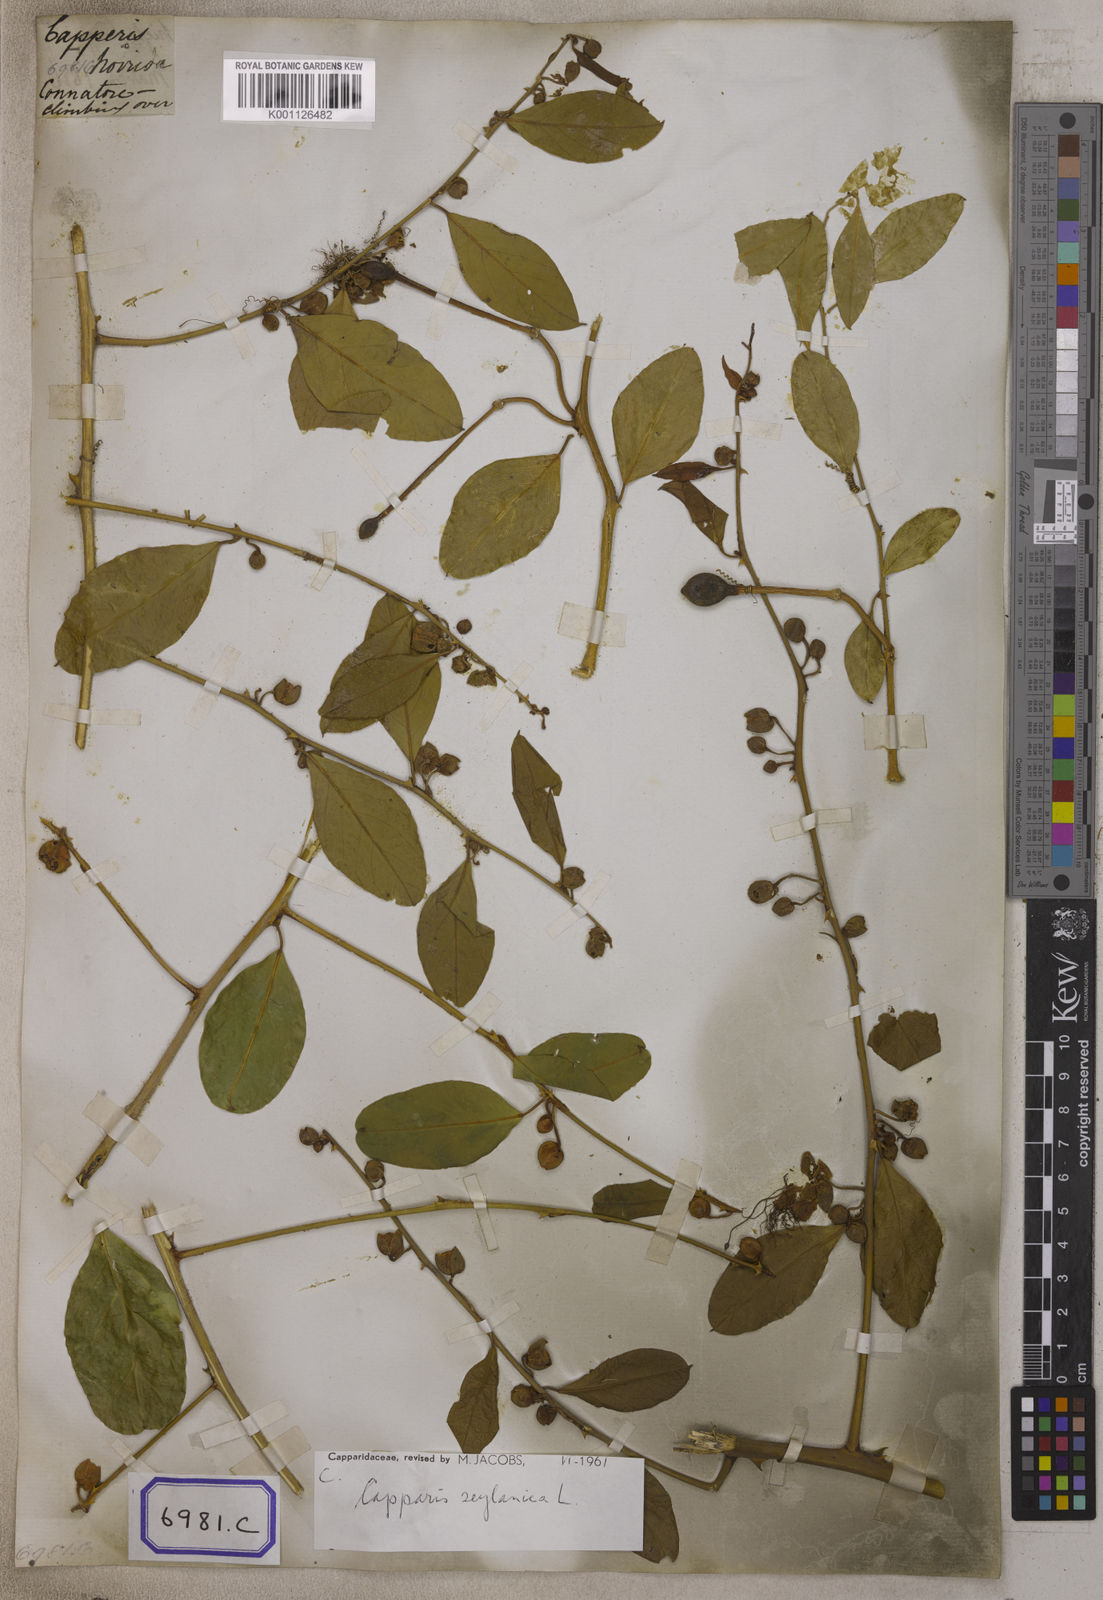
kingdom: Plantae
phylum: Tracheophyta
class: Magnoliopsida
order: Brassicales
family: Capparaceae
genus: Capparis
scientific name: Capparis zeylanica
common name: Ceylon caper
